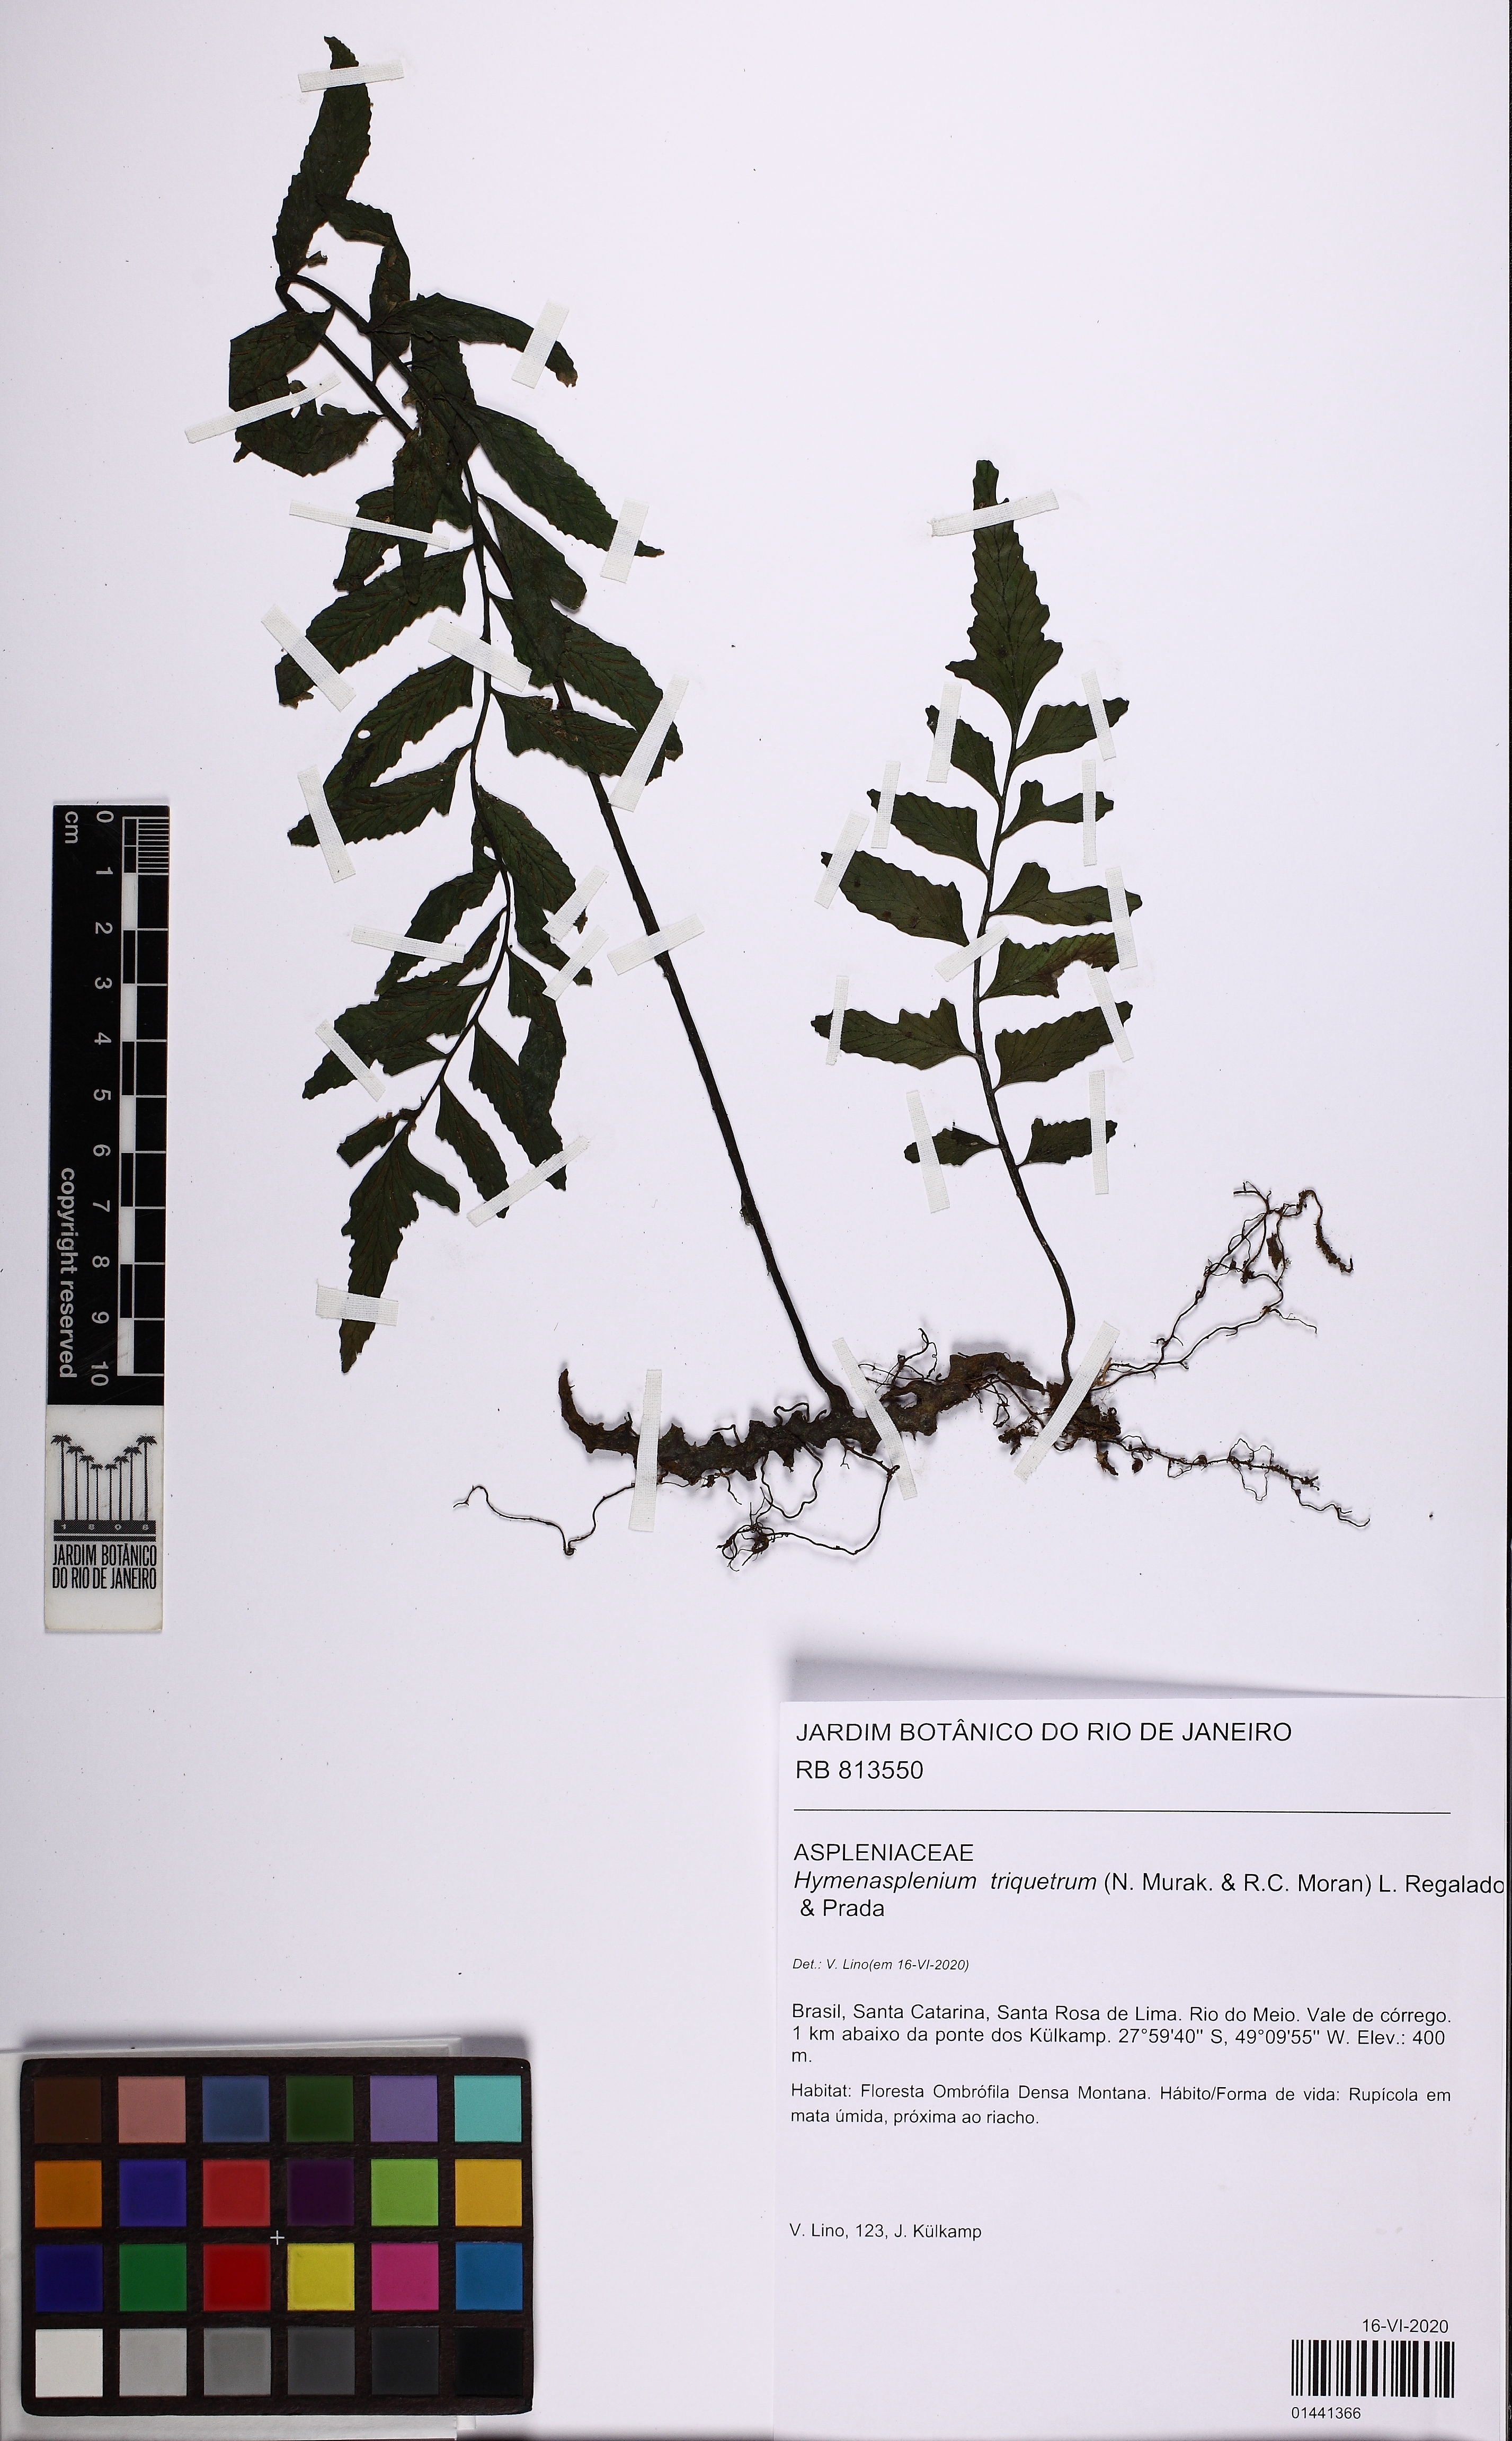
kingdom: Plantae
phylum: Tracheophyta
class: Polypodiopsida
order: Polypodiales
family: Aspleniaceae
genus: Hymenasplenium
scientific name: Hymenasplenium triquetrum
